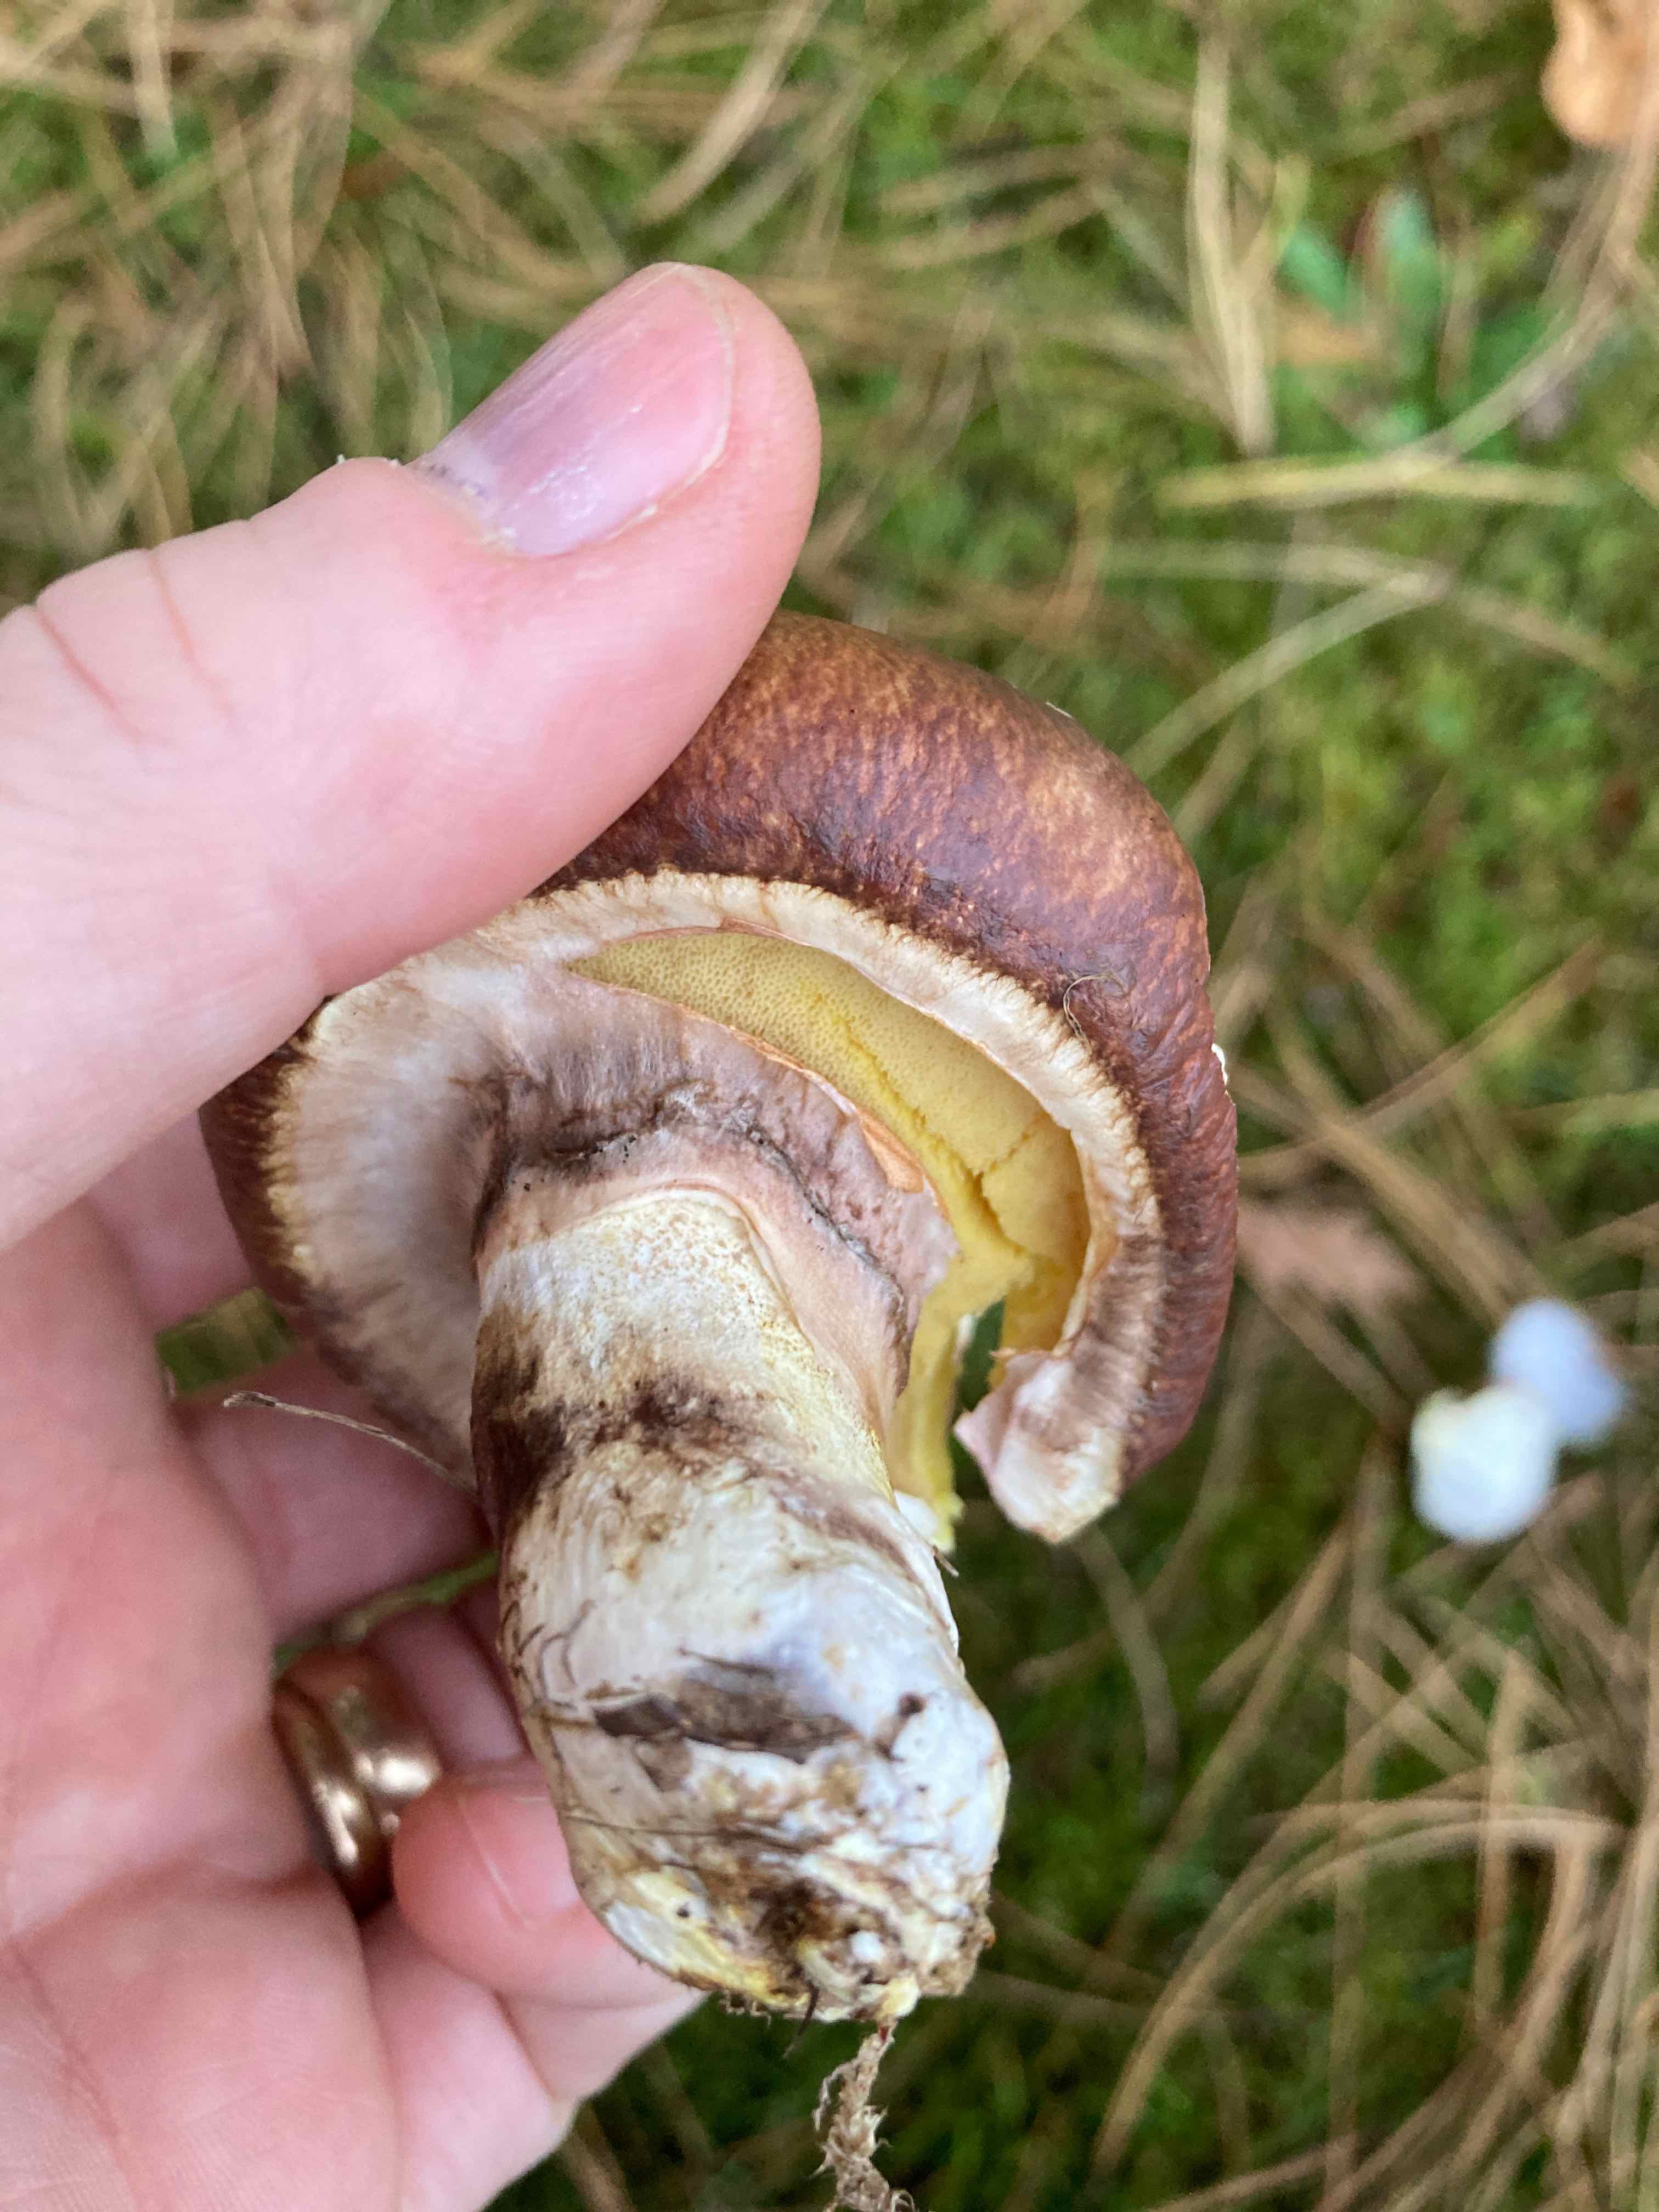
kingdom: Fungi
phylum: Basidiomycota
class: Agaricomycetes
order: Boletales
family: Suillaceae
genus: Suillus
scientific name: Suillus luteus
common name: brungul slimrørhat
